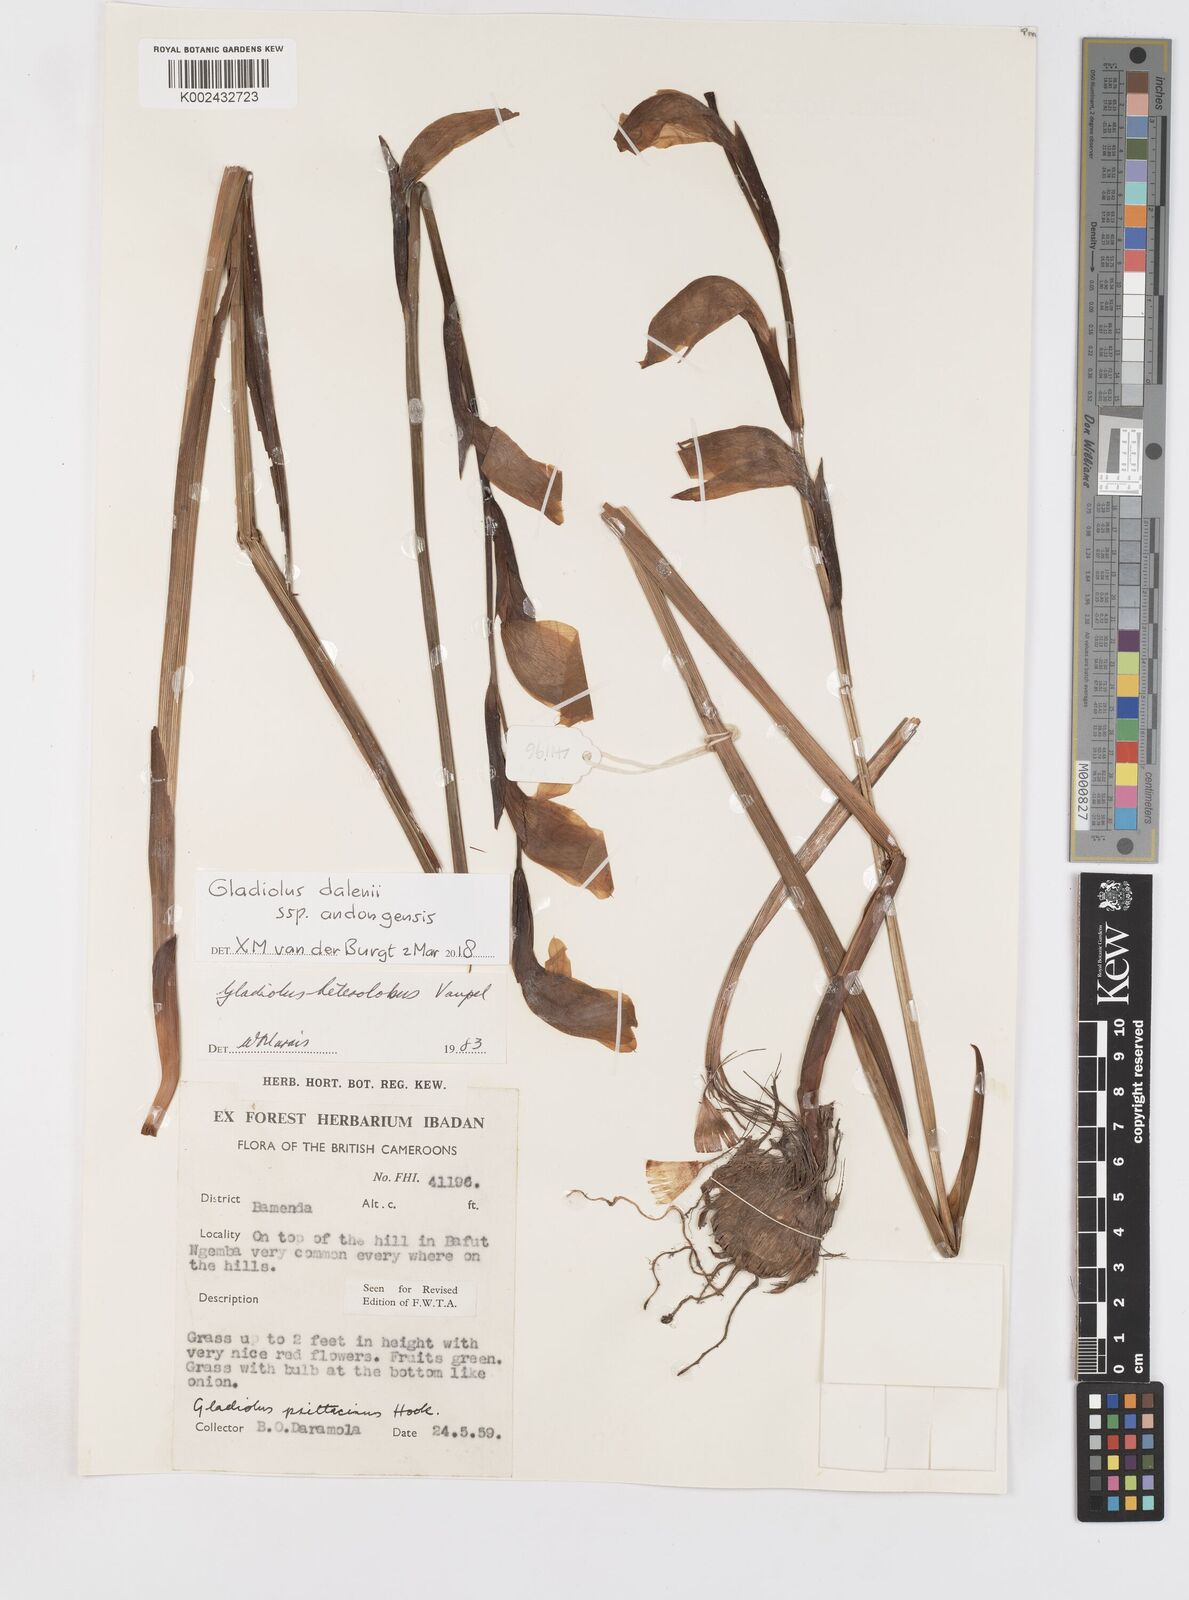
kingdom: Plantae
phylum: Tracheophyta
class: Liliopsida
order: Asparagales
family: Iridaceae
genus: Gladiolus
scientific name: Gladiolus dalenii
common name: Cornflag
